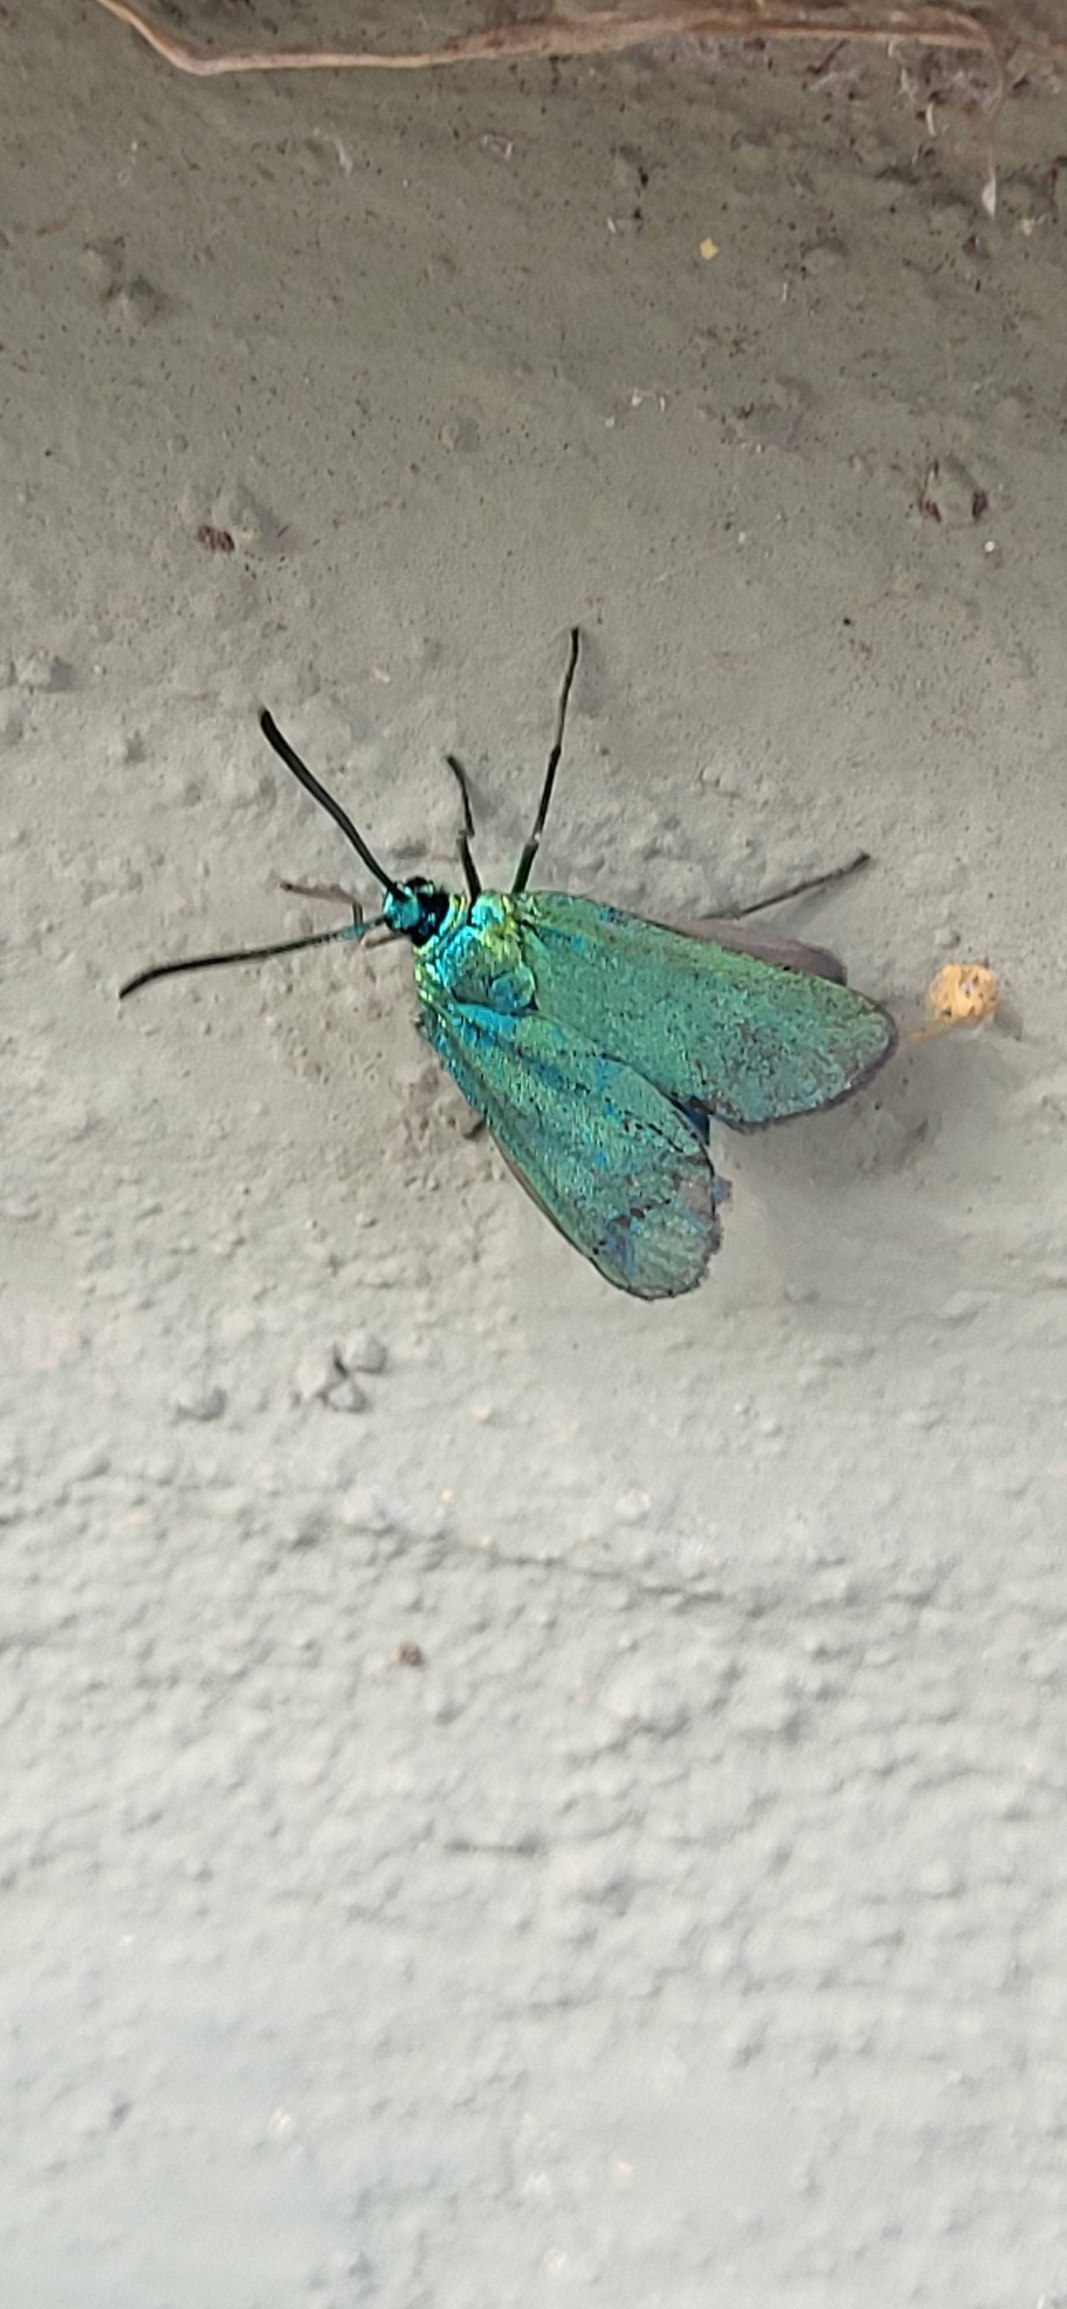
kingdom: Animalia
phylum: Arthropoda
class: Insecta
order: Lepidoptera
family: Zygaenidae
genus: Adscita
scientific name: Adscita statices
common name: Metalvinge
